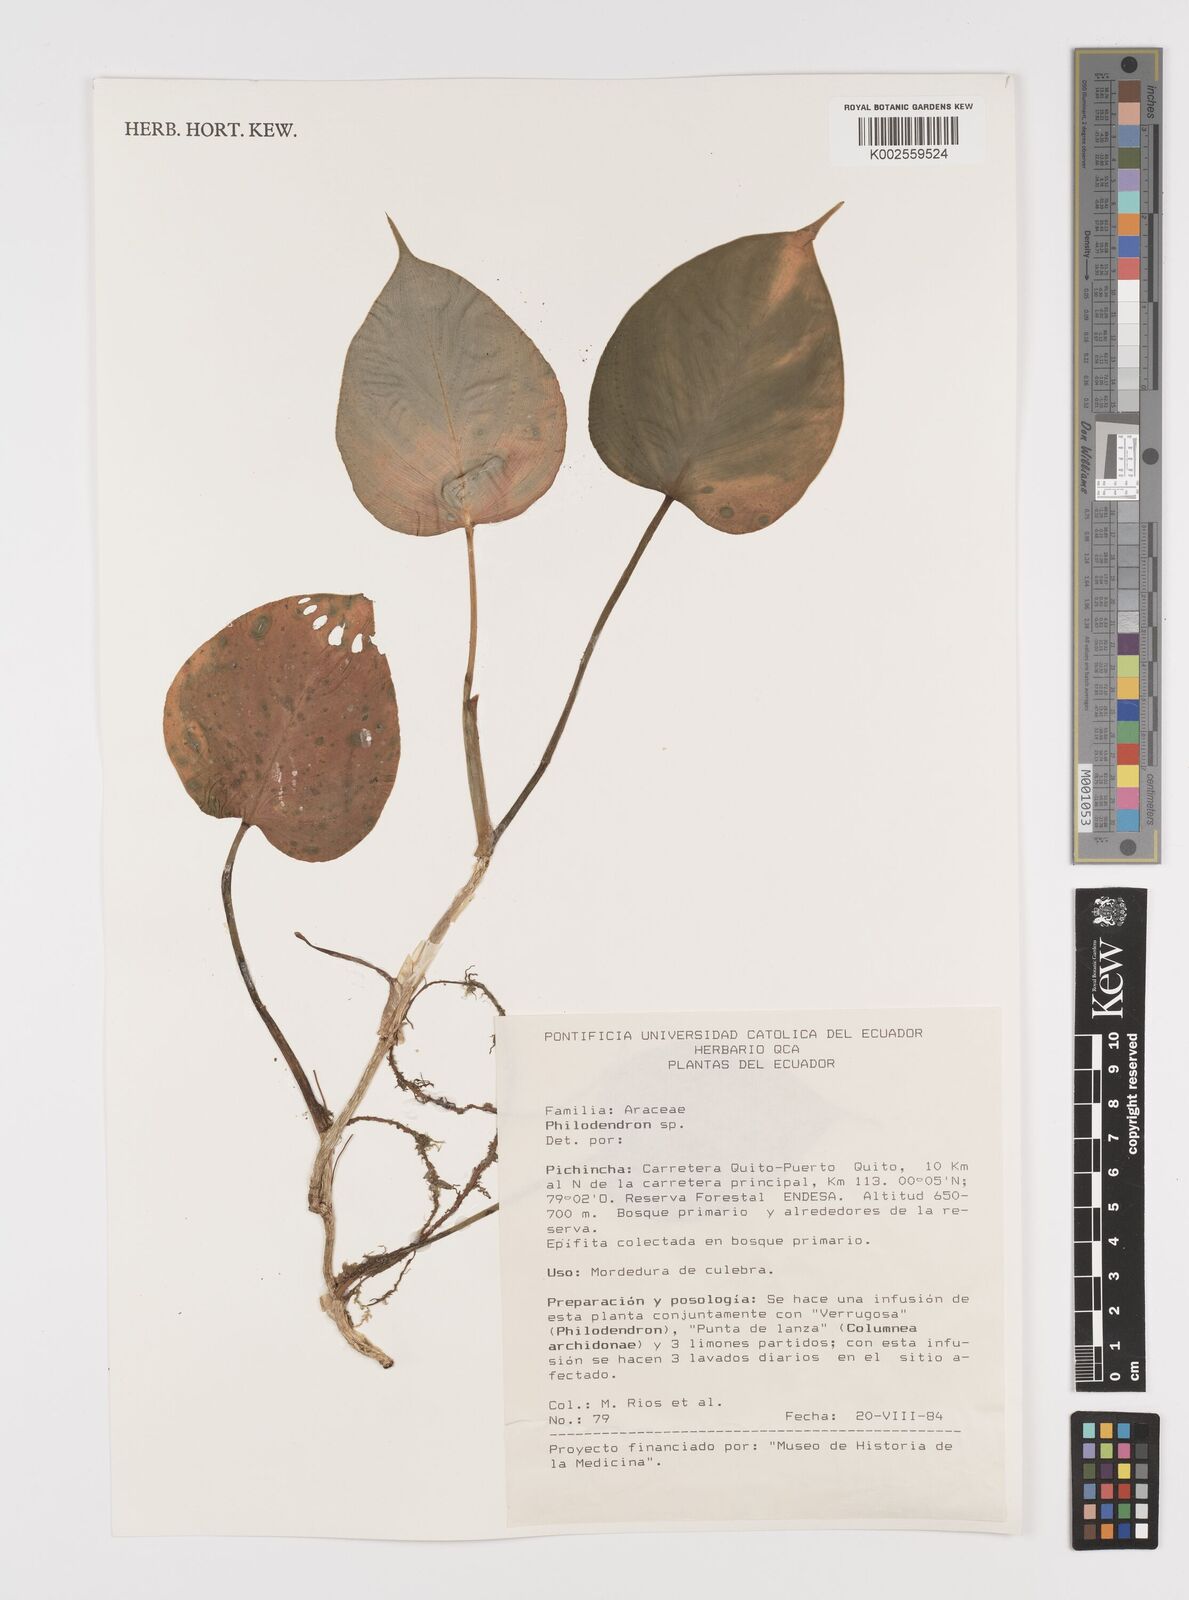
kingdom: Plantae
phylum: Tracheophyta
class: Liliopsida
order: Alismatales
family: Araceae
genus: Philodendron
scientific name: Philodendron
